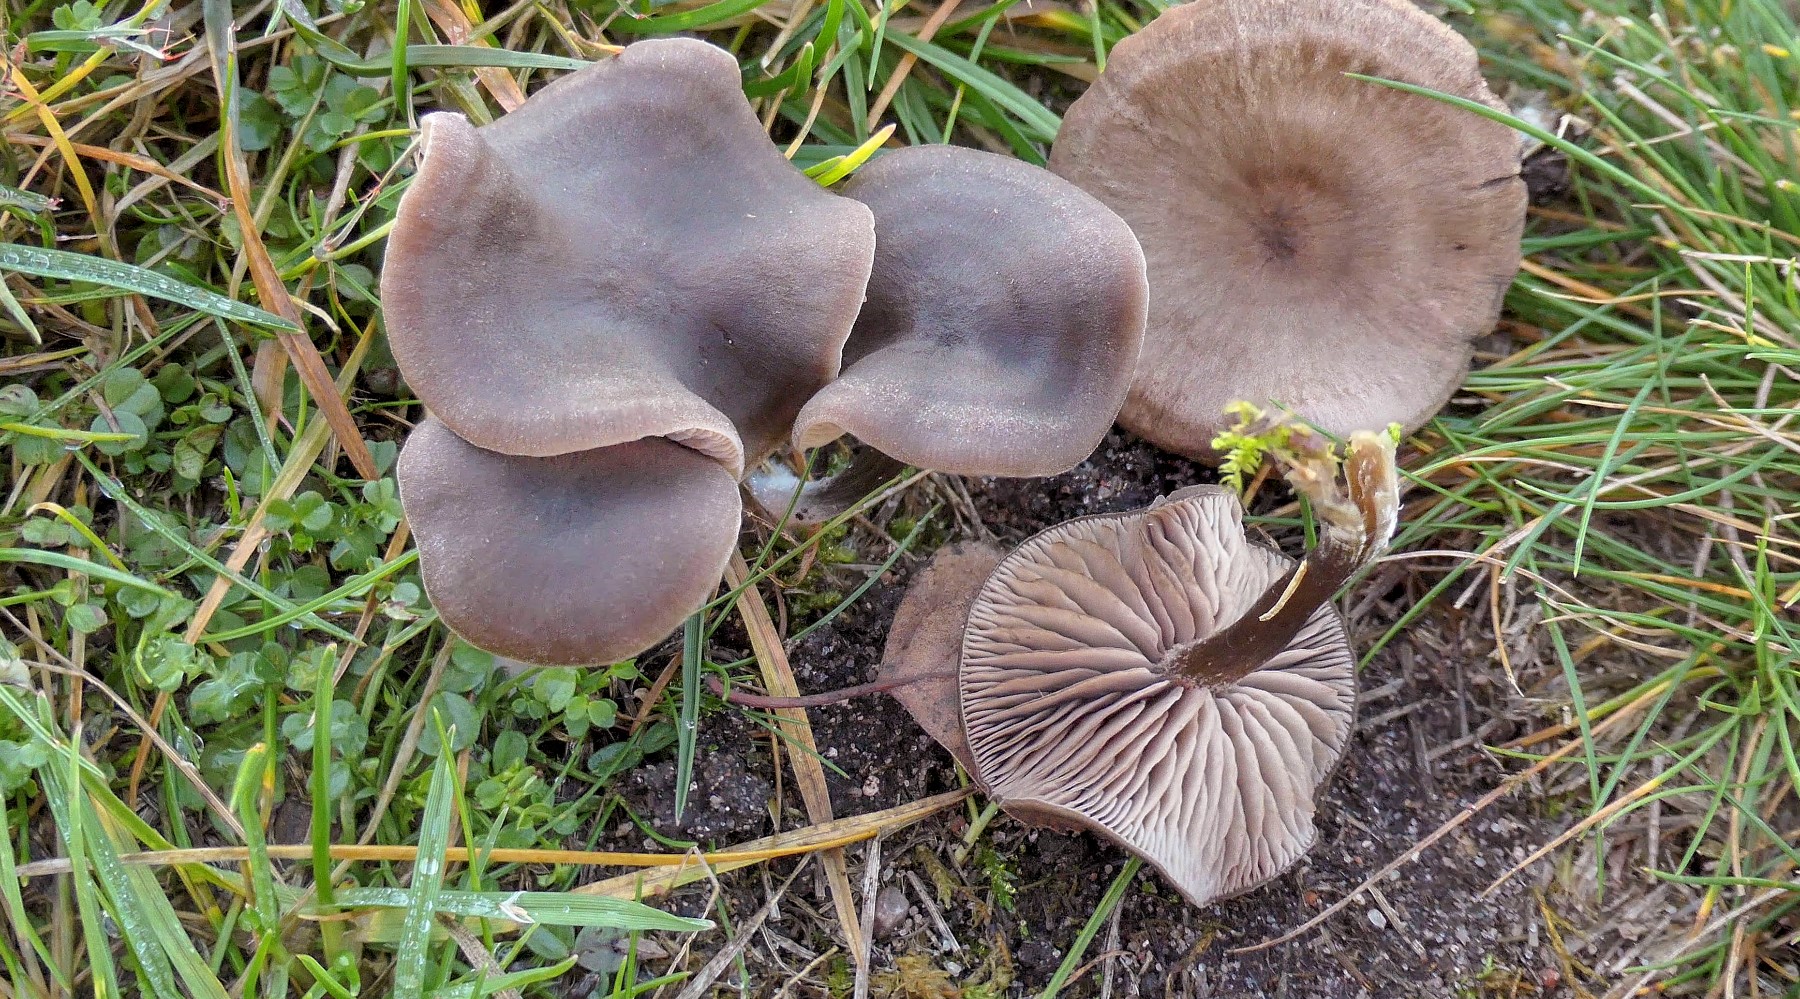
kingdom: Fungi
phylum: Basidiomycota
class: Agaricomycetes
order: Agaricales
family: Entolomataceae
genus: Entoloma
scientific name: Entoloma sericeum
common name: silkeglinsende rødblad
